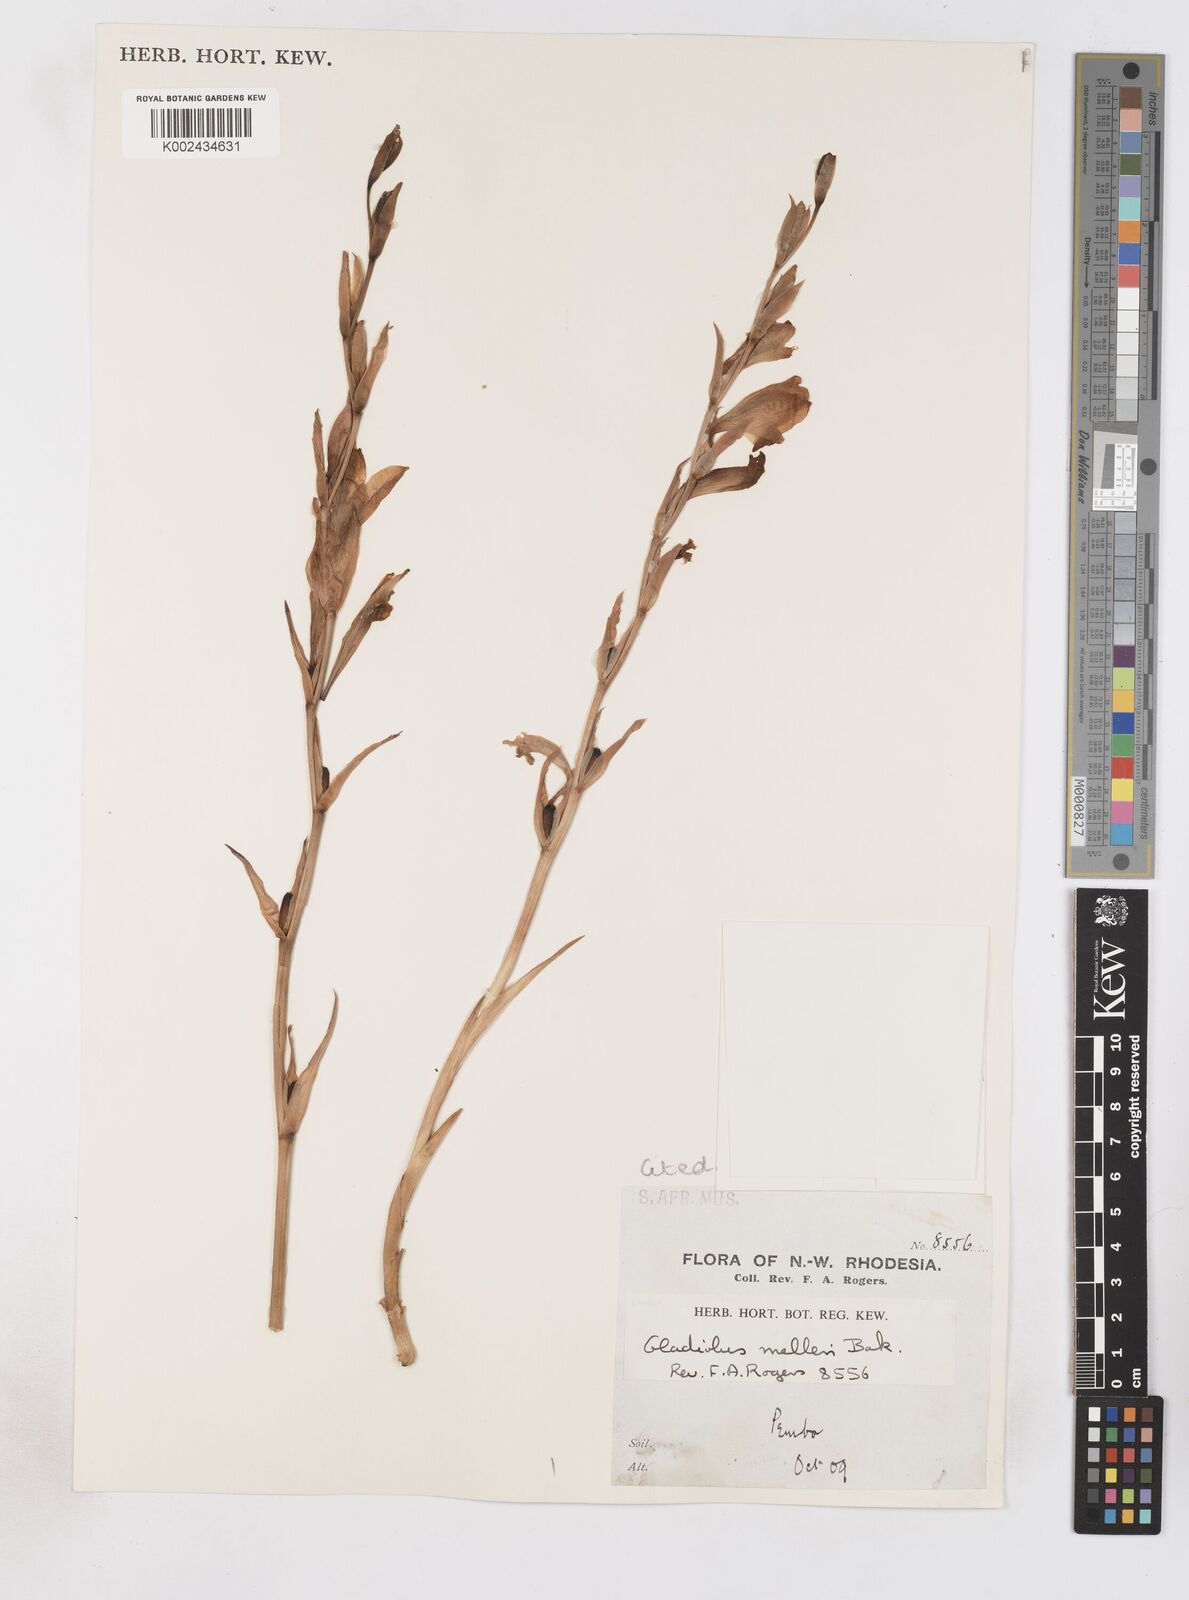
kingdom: Plantae
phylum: Tracheophyta
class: Liliopsida
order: Asparagales
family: Iridaceae
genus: Gladiolus
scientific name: Gladiolus melleri
